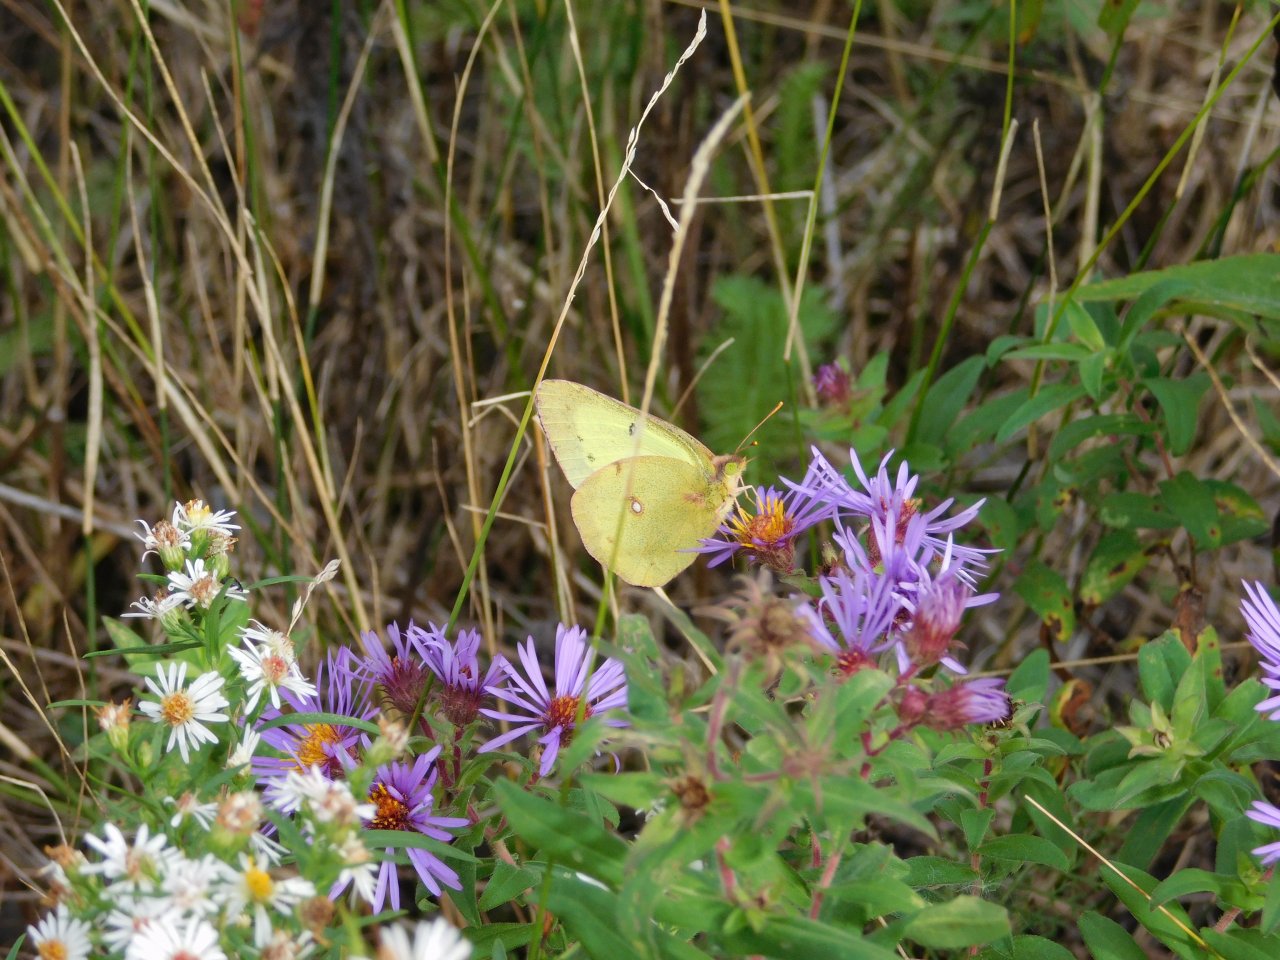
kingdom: Animalia
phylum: Arthropoda
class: Insecta
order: Lepidoptera
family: Pieridae
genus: Colias
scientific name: Colias philodice
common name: Clouded Sulphur
